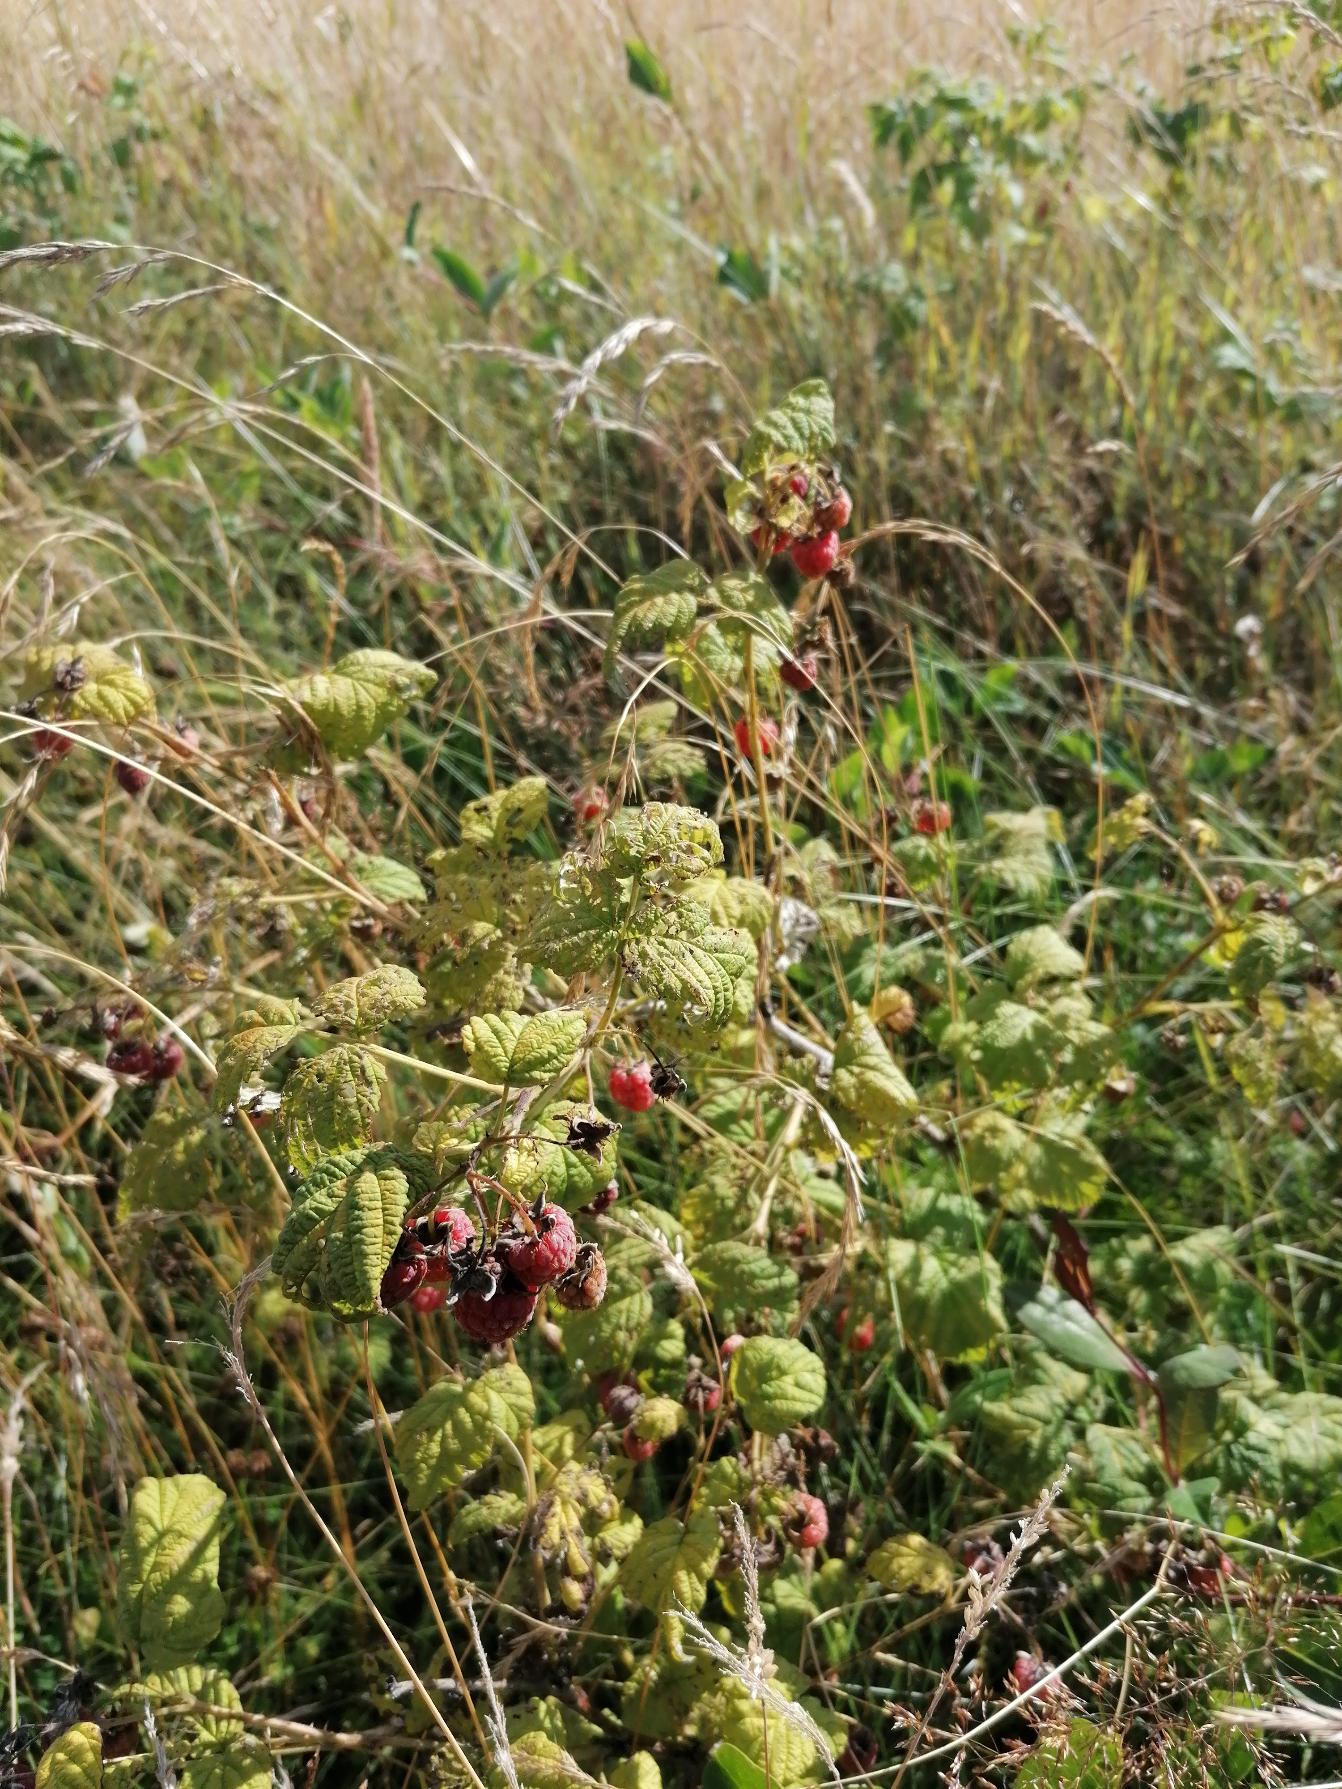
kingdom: Plantae
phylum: Tracheophyta
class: Magnoliopsida
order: Rosales
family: Rosaceae
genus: Rubus
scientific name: Rubus idaeus
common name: Hindbær
